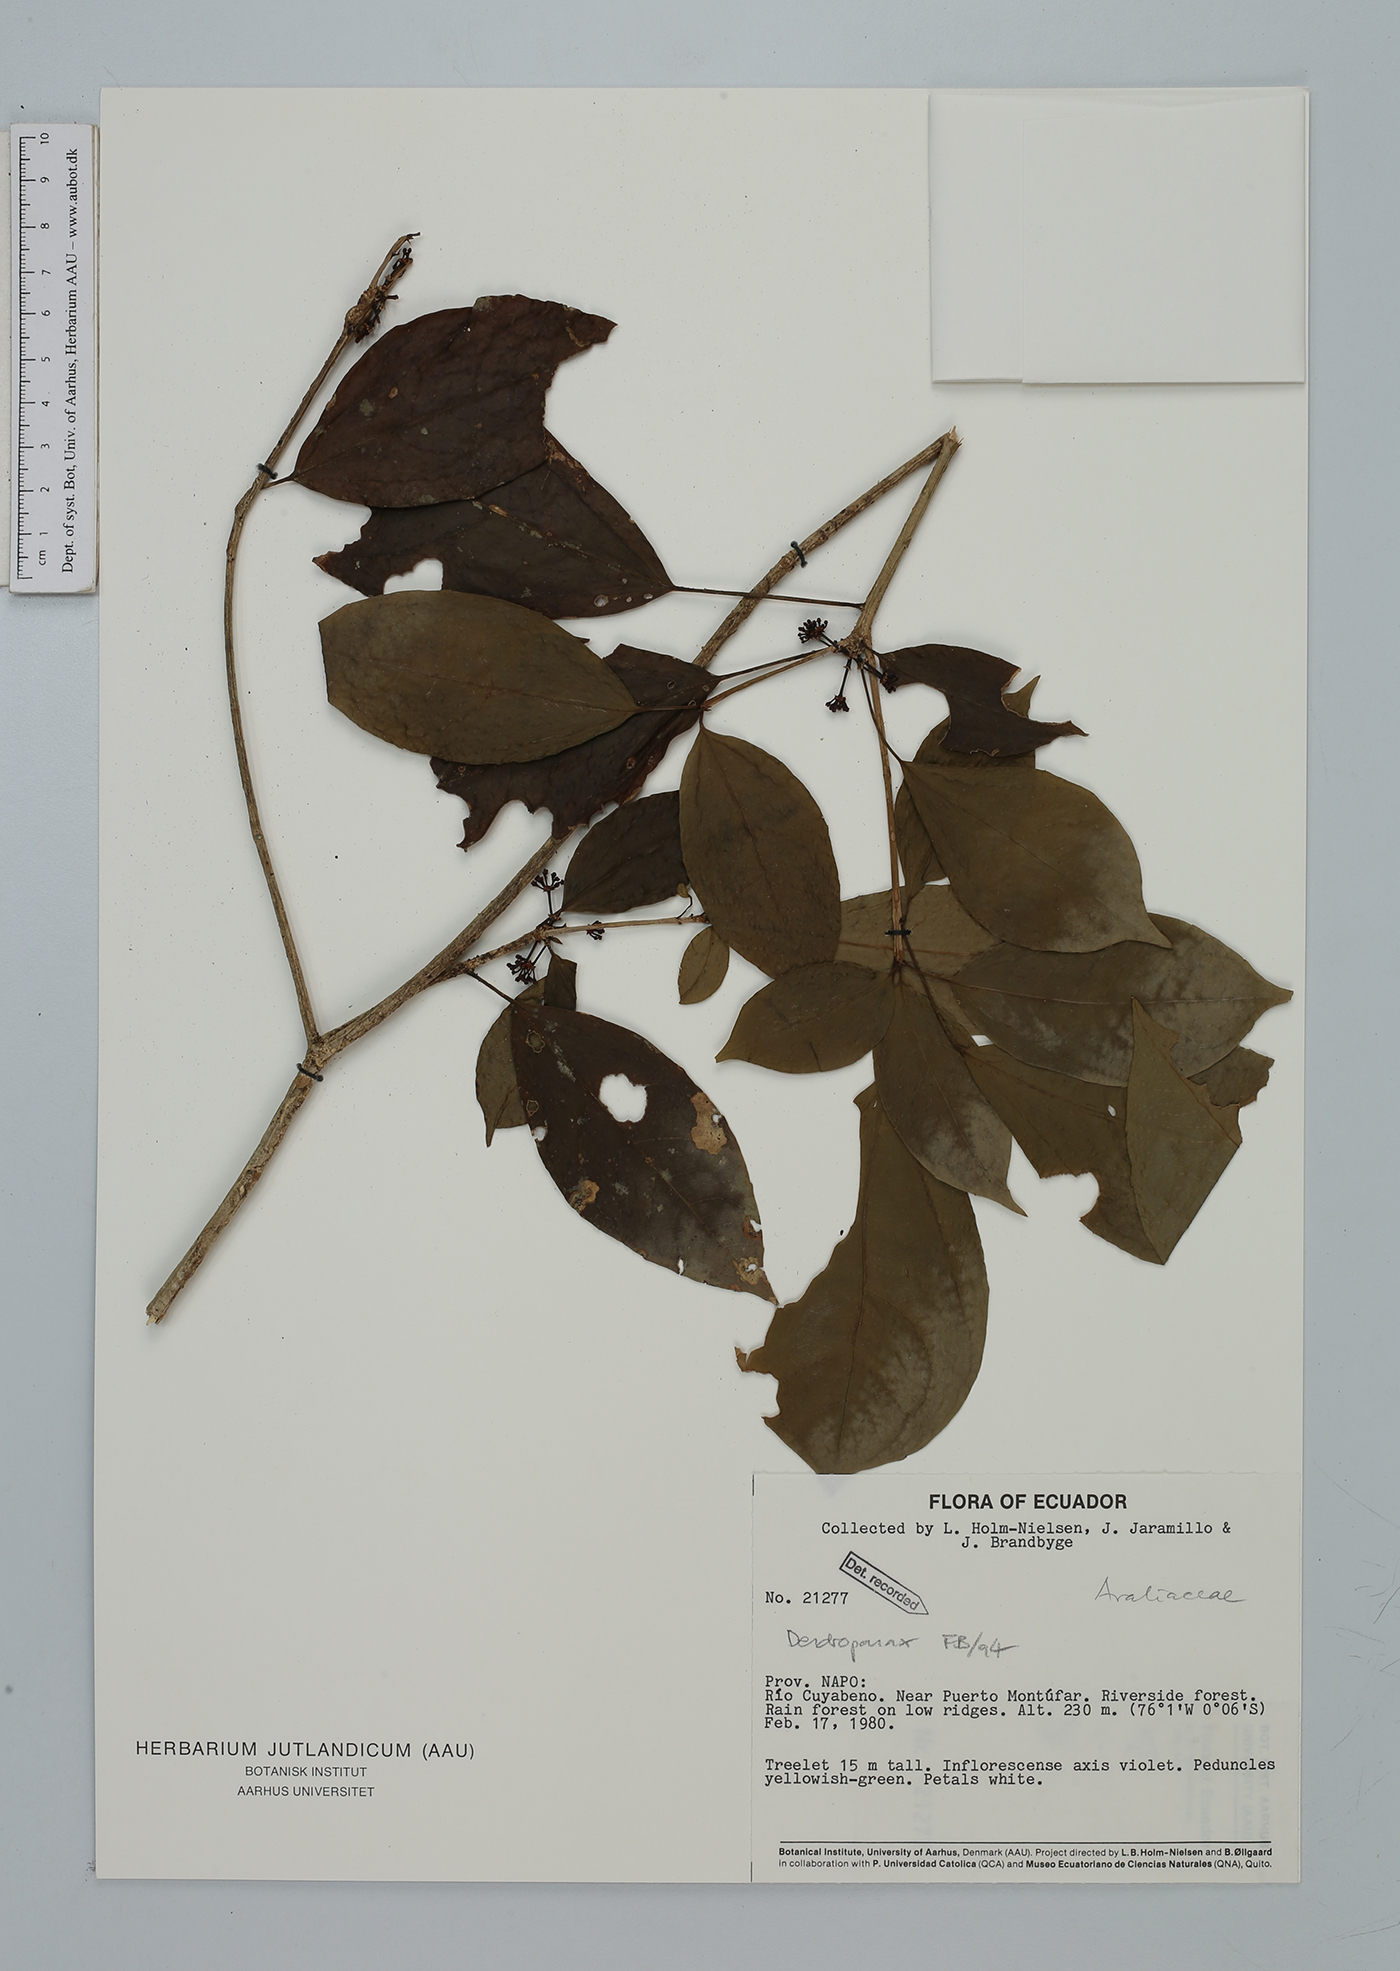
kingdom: Plantae
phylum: Tracheophyta
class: Magnoliopsida
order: Malvales
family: Malvaceae
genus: Byttneria
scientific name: Byttneria ancistrodonta
